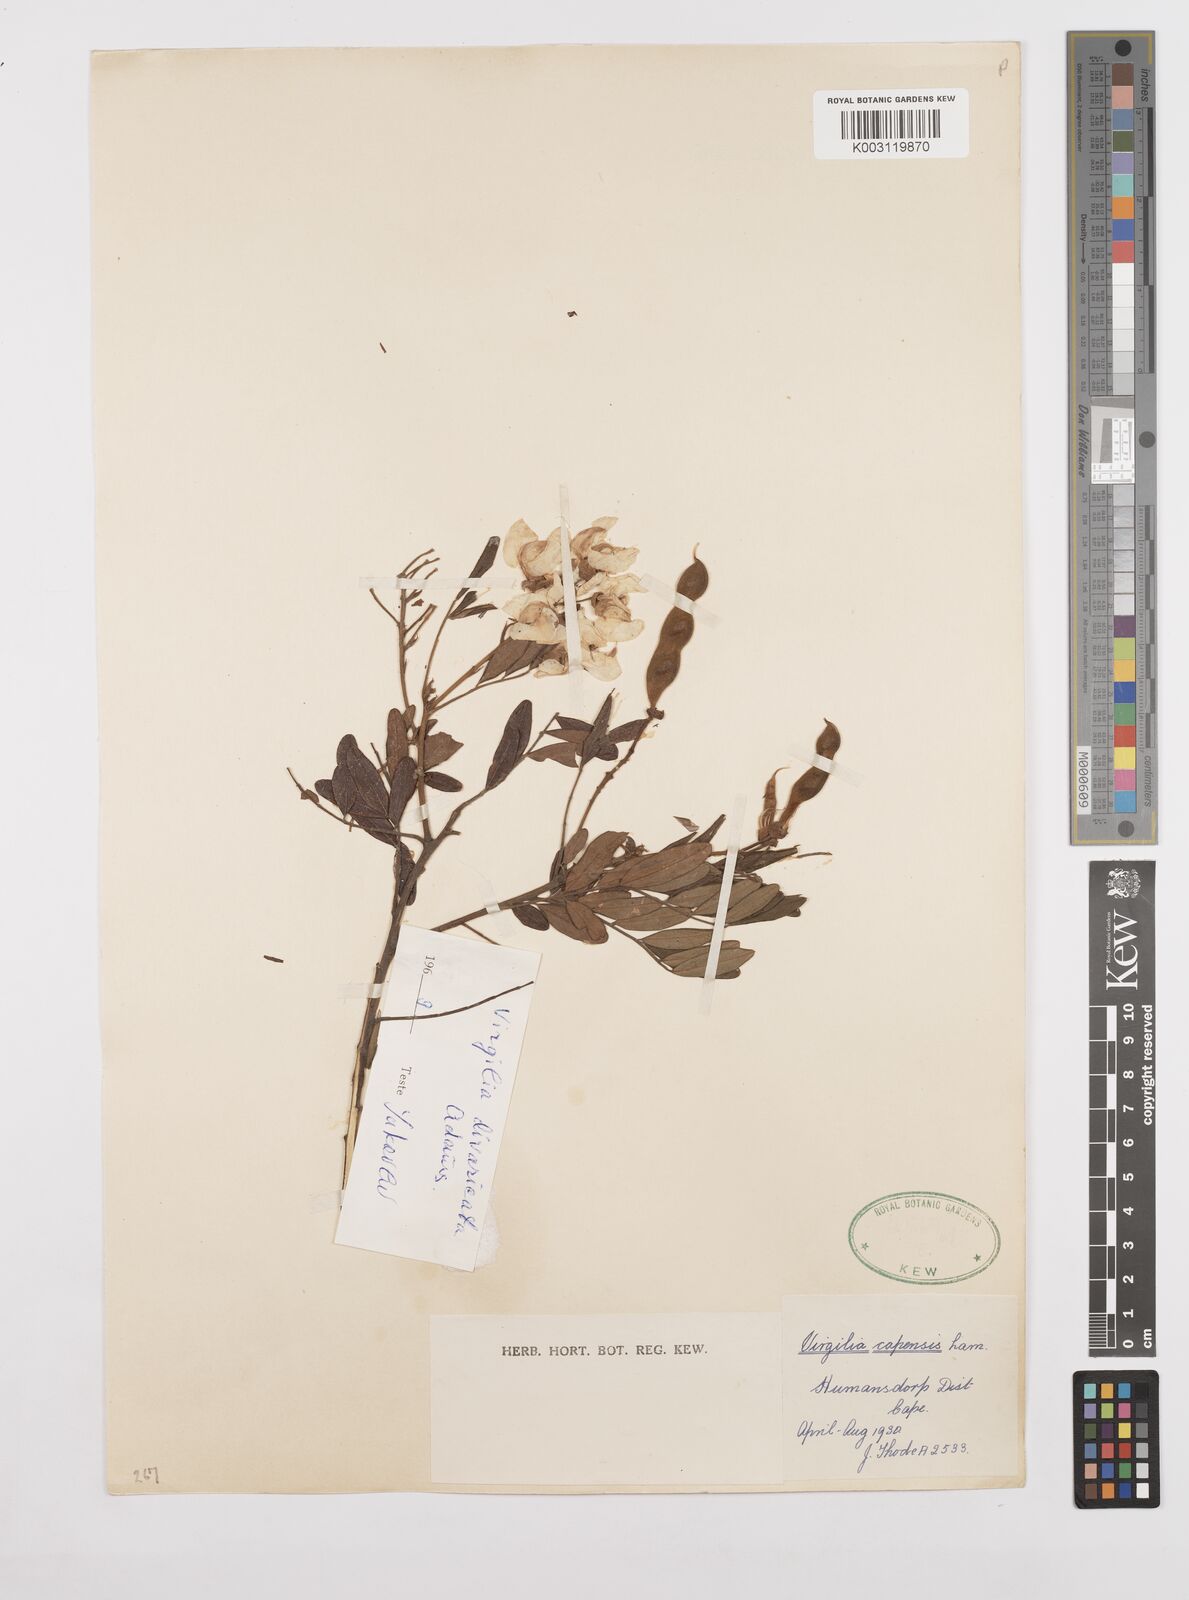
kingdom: Plantae
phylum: Tracheophyta
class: Magnoliopsida
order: Fabales
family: Fabaceae
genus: Virgilia
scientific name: Virgilia divaricata
